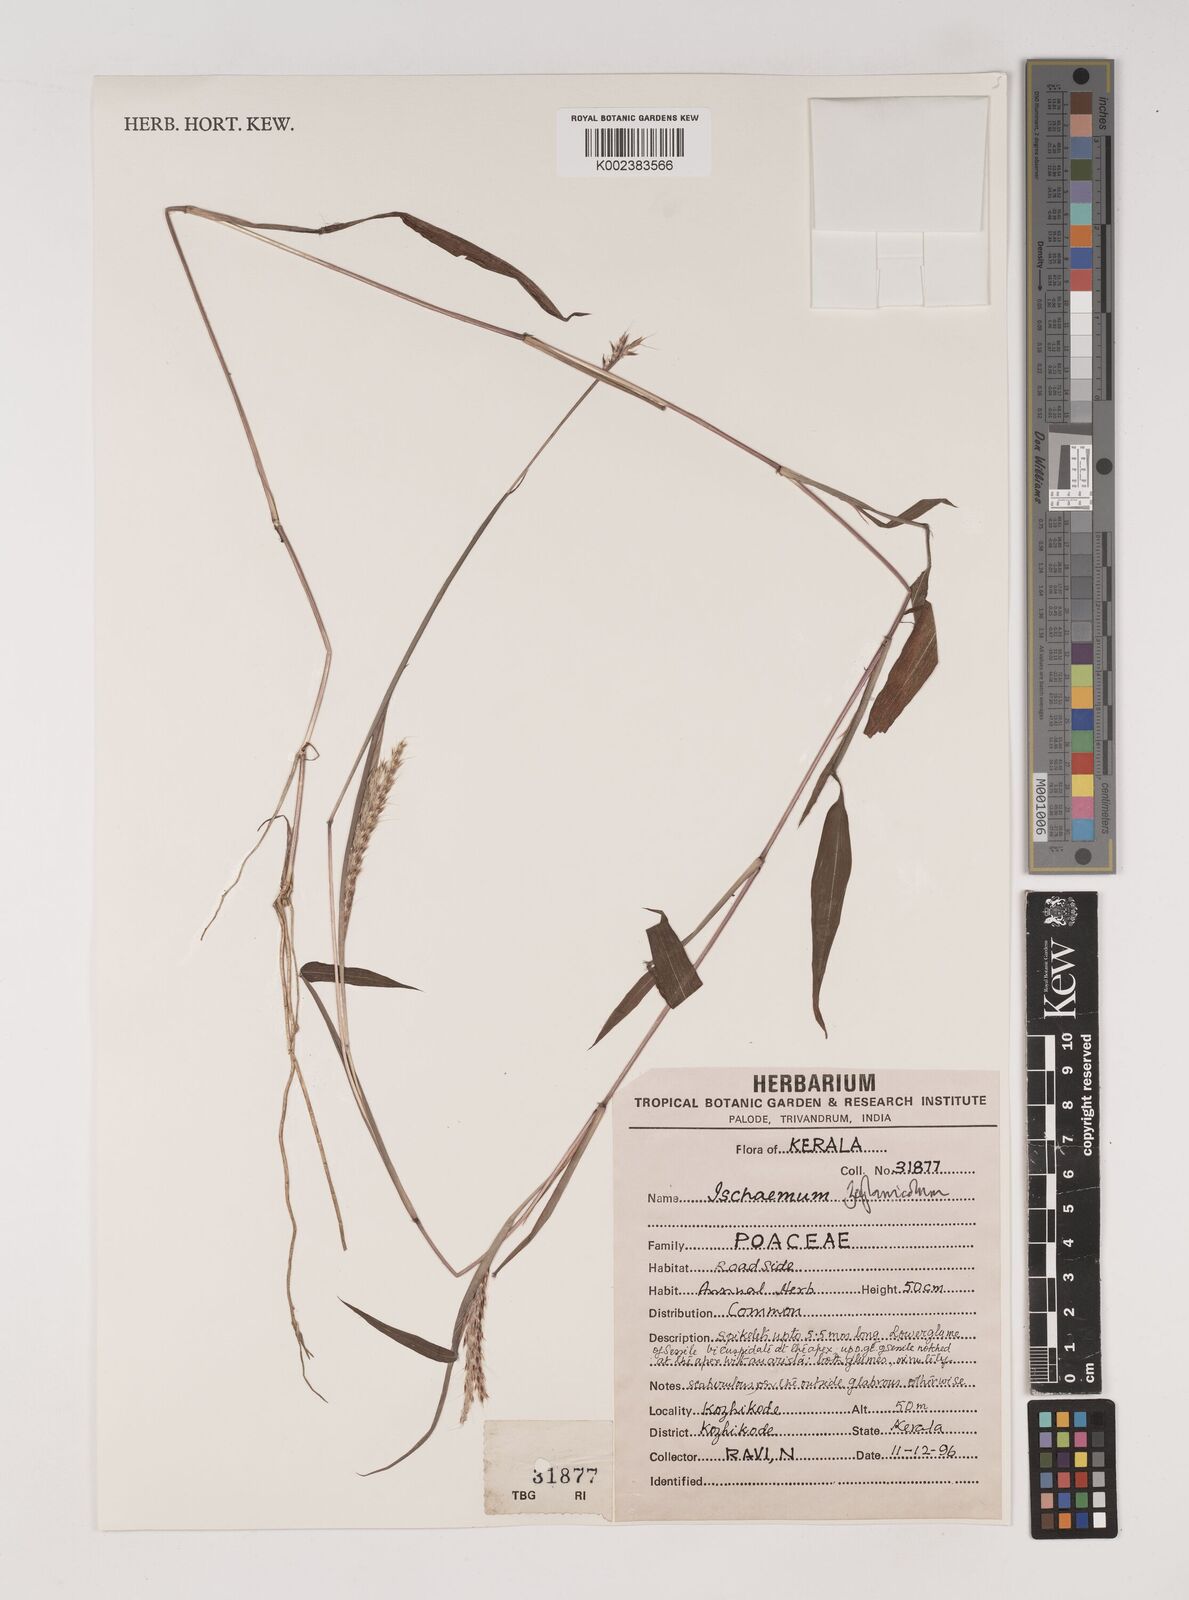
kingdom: Plantae
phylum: Tracheophyta
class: Liliopsida
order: Poales
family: Poaceae
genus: Ischaemum
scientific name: Ischaemum zeylanicola
